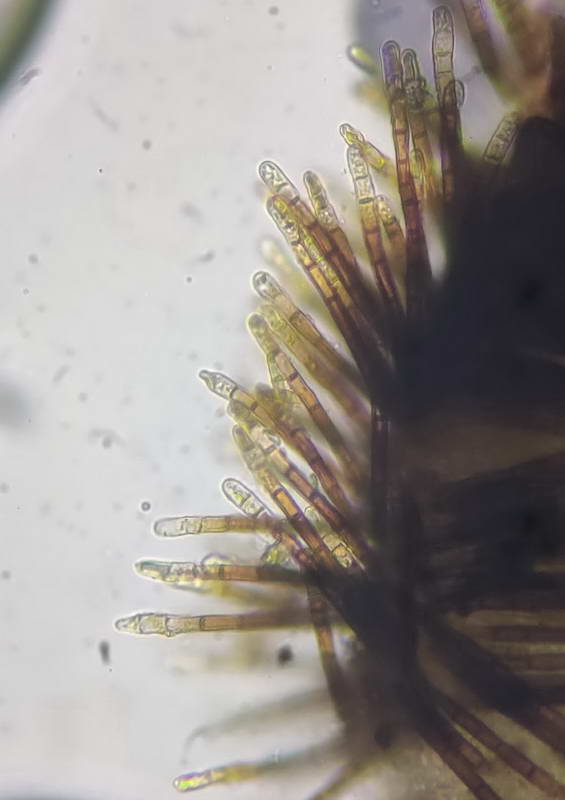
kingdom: Fungi
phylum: Ascomycota
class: Leotiomycetes
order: Helotiales
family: Solenopeziaceae
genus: Lasiobelonium
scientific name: Lasiobelonium nidulus
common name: rede-frynseskive
